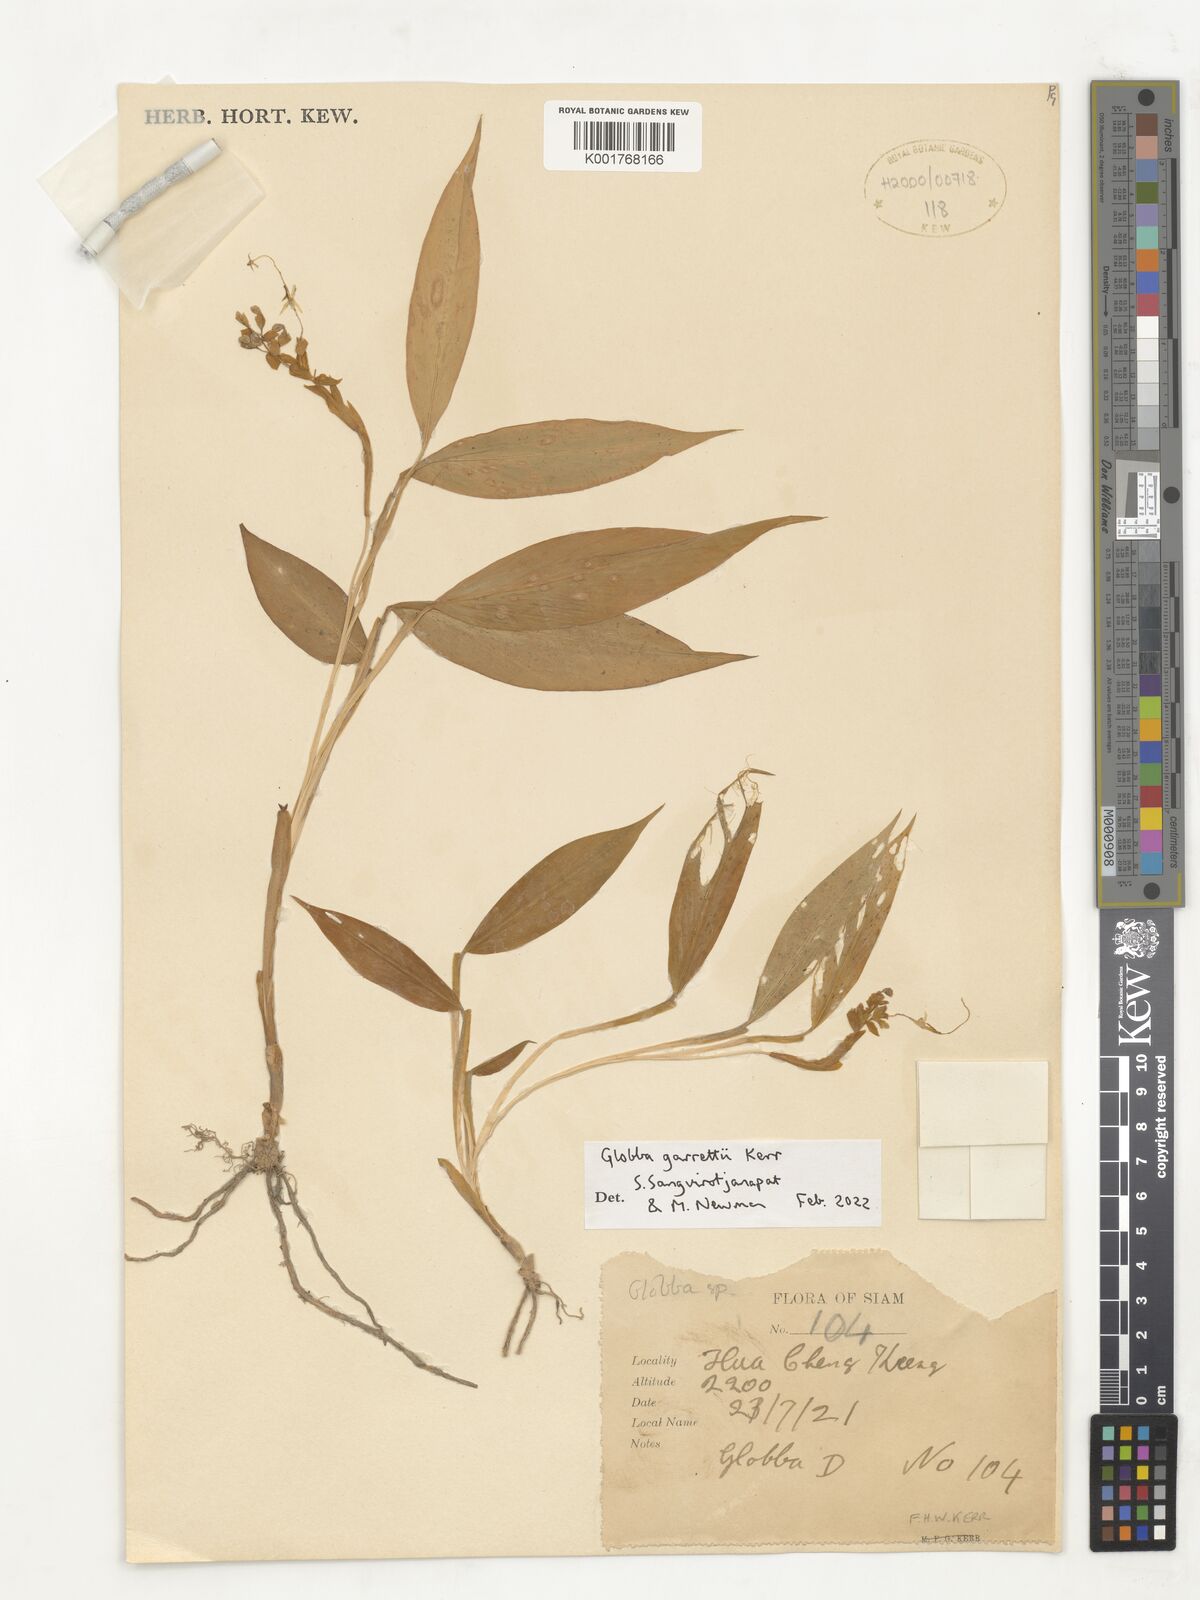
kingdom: Plantae
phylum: Tracheophyta
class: Liliopsida
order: Zingiberales
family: Zingiberaceae
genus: Globba
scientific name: Globba garrettii
